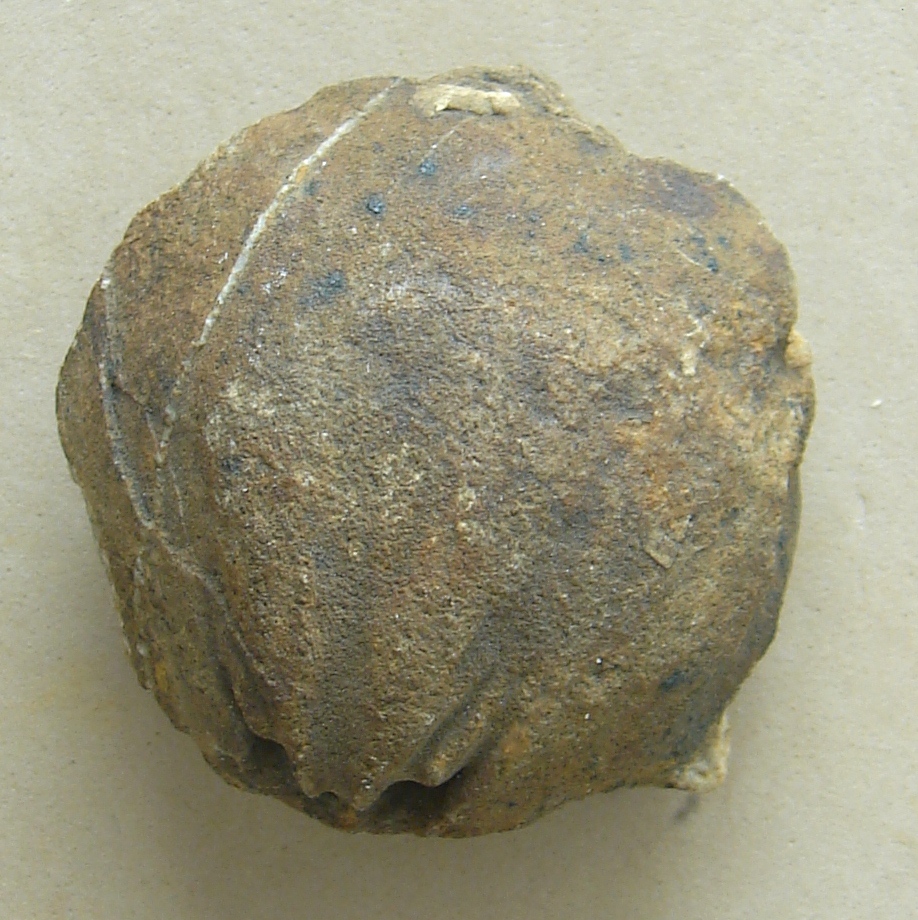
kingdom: Animalia
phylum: Brachiopoda
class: Rhynchonellata
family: Schizophoriidae
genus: Schizophoria
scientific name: Schizophoria
